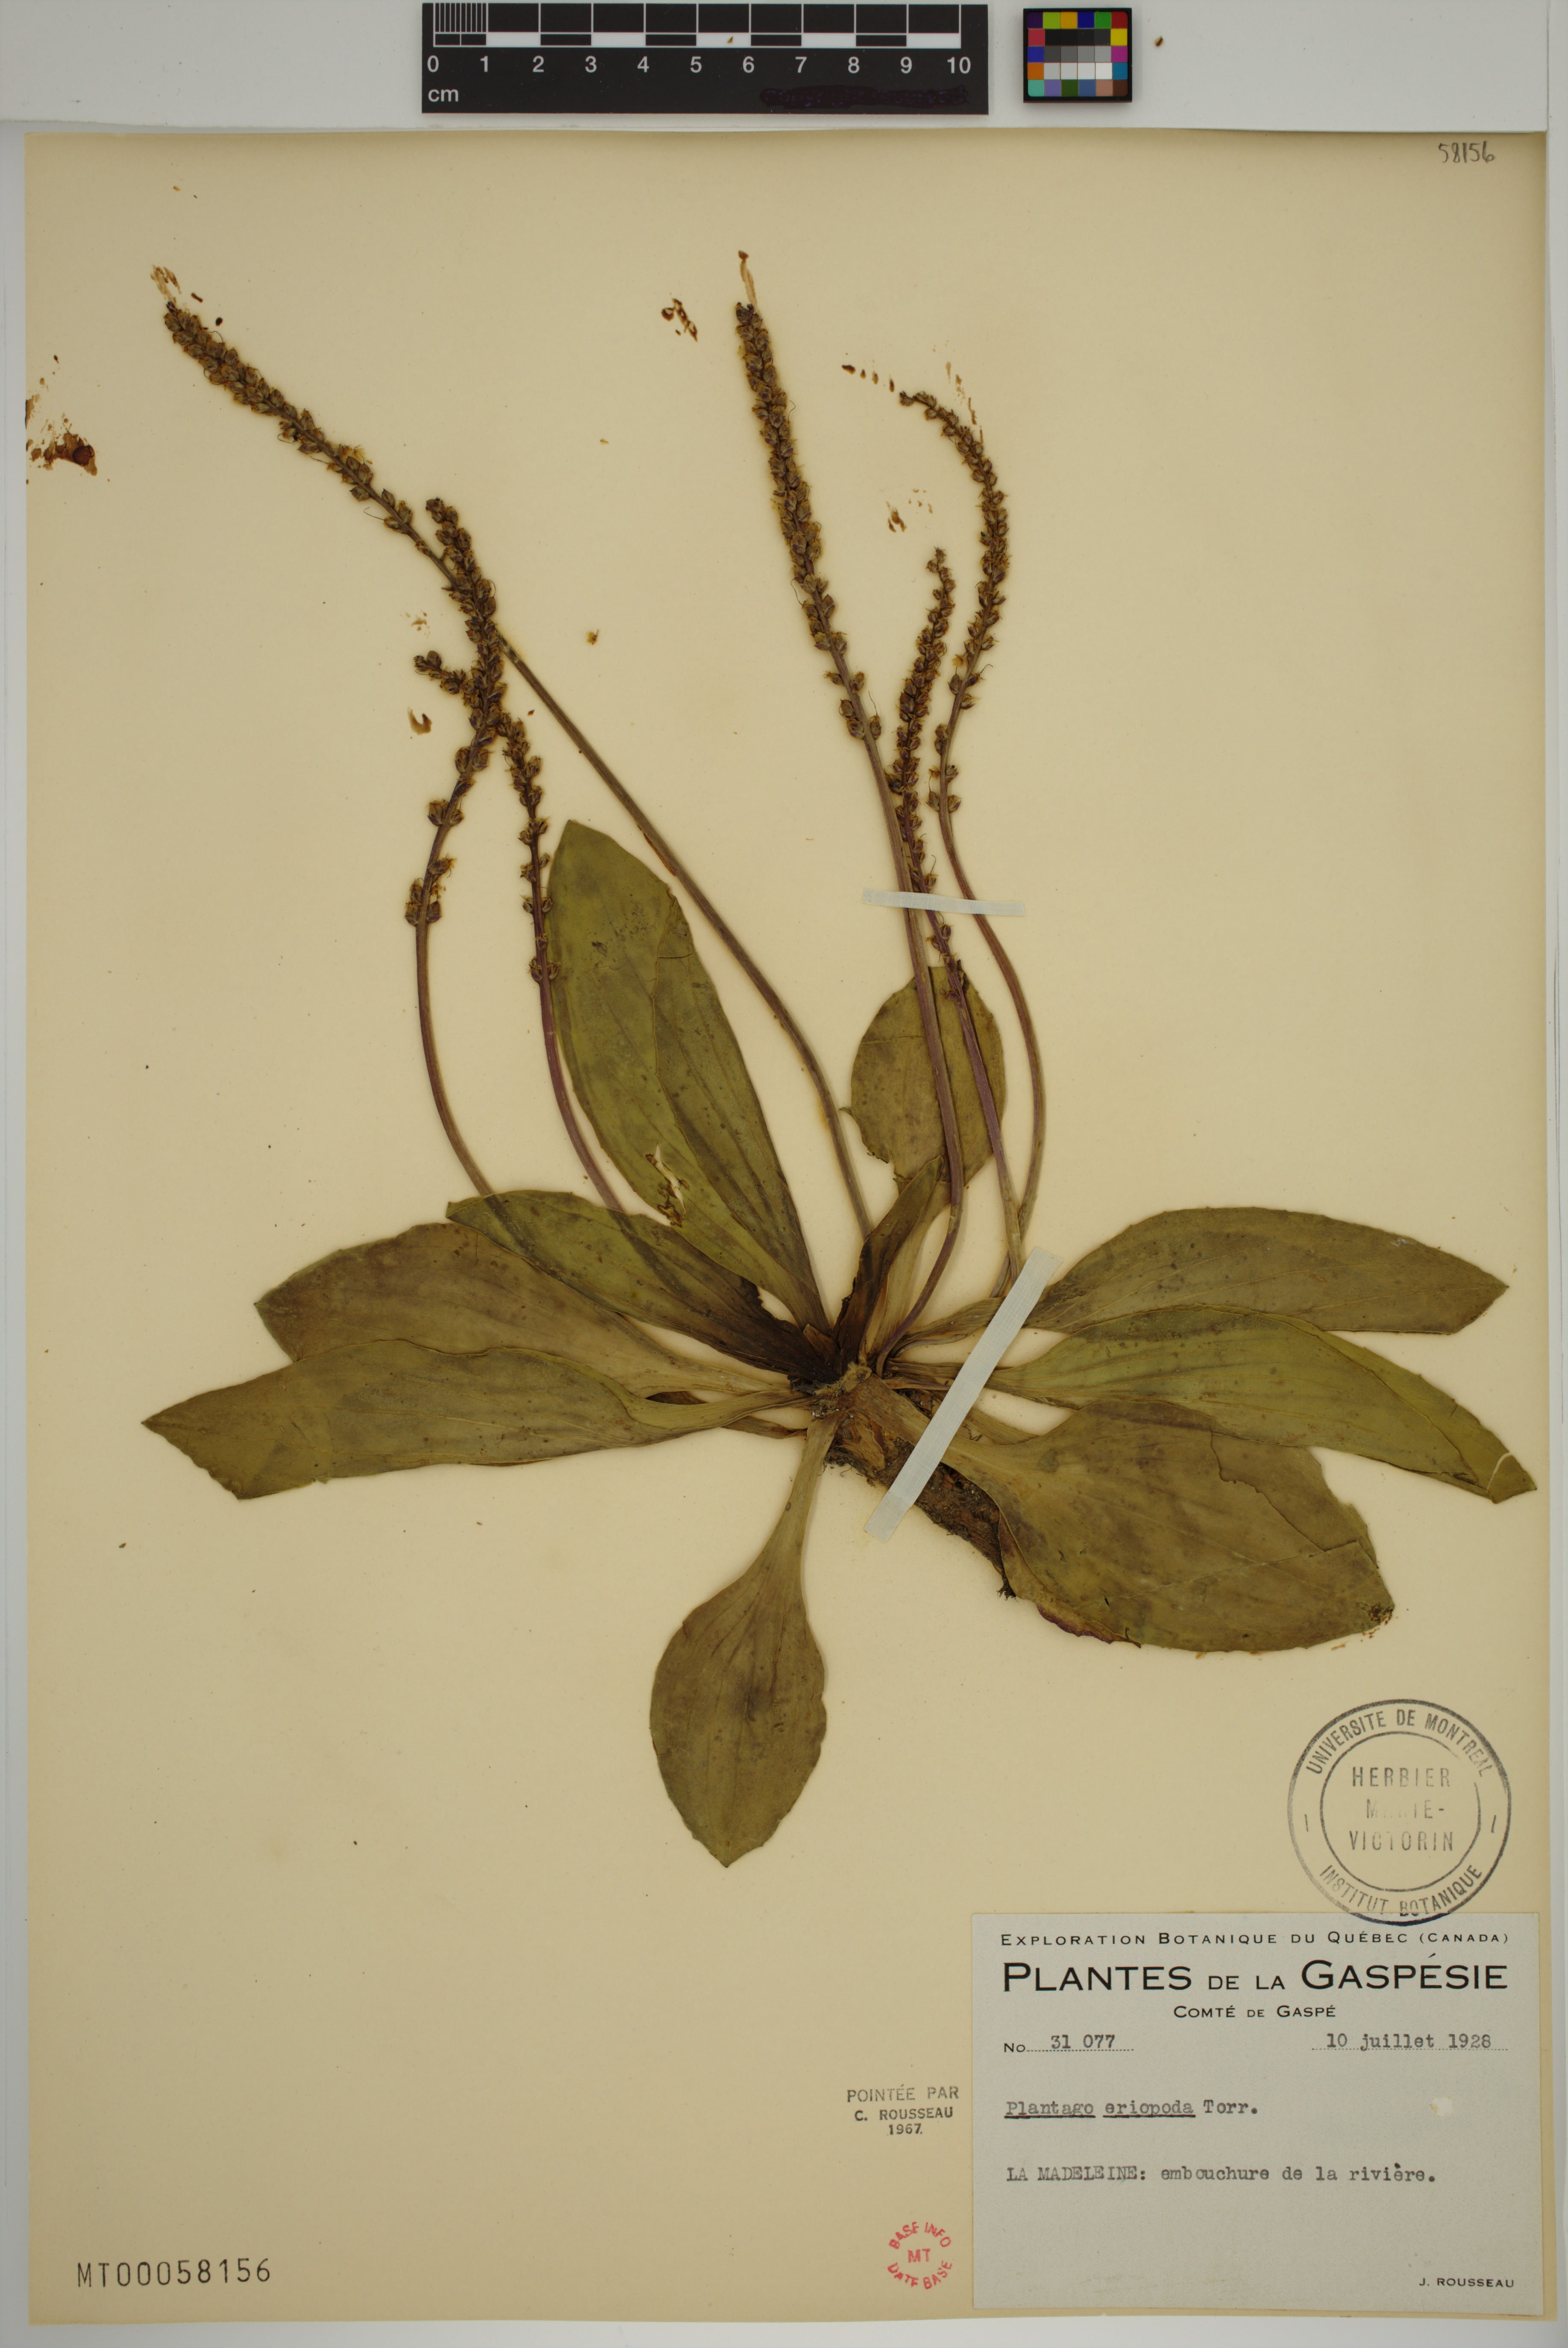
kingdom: Plantae
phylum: Tracheophyta
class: Magnoliopsida
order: Lamiales
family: Plantaginaceae
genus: Plantago
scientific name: Plantago eriopoda
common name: Alkali plantain
